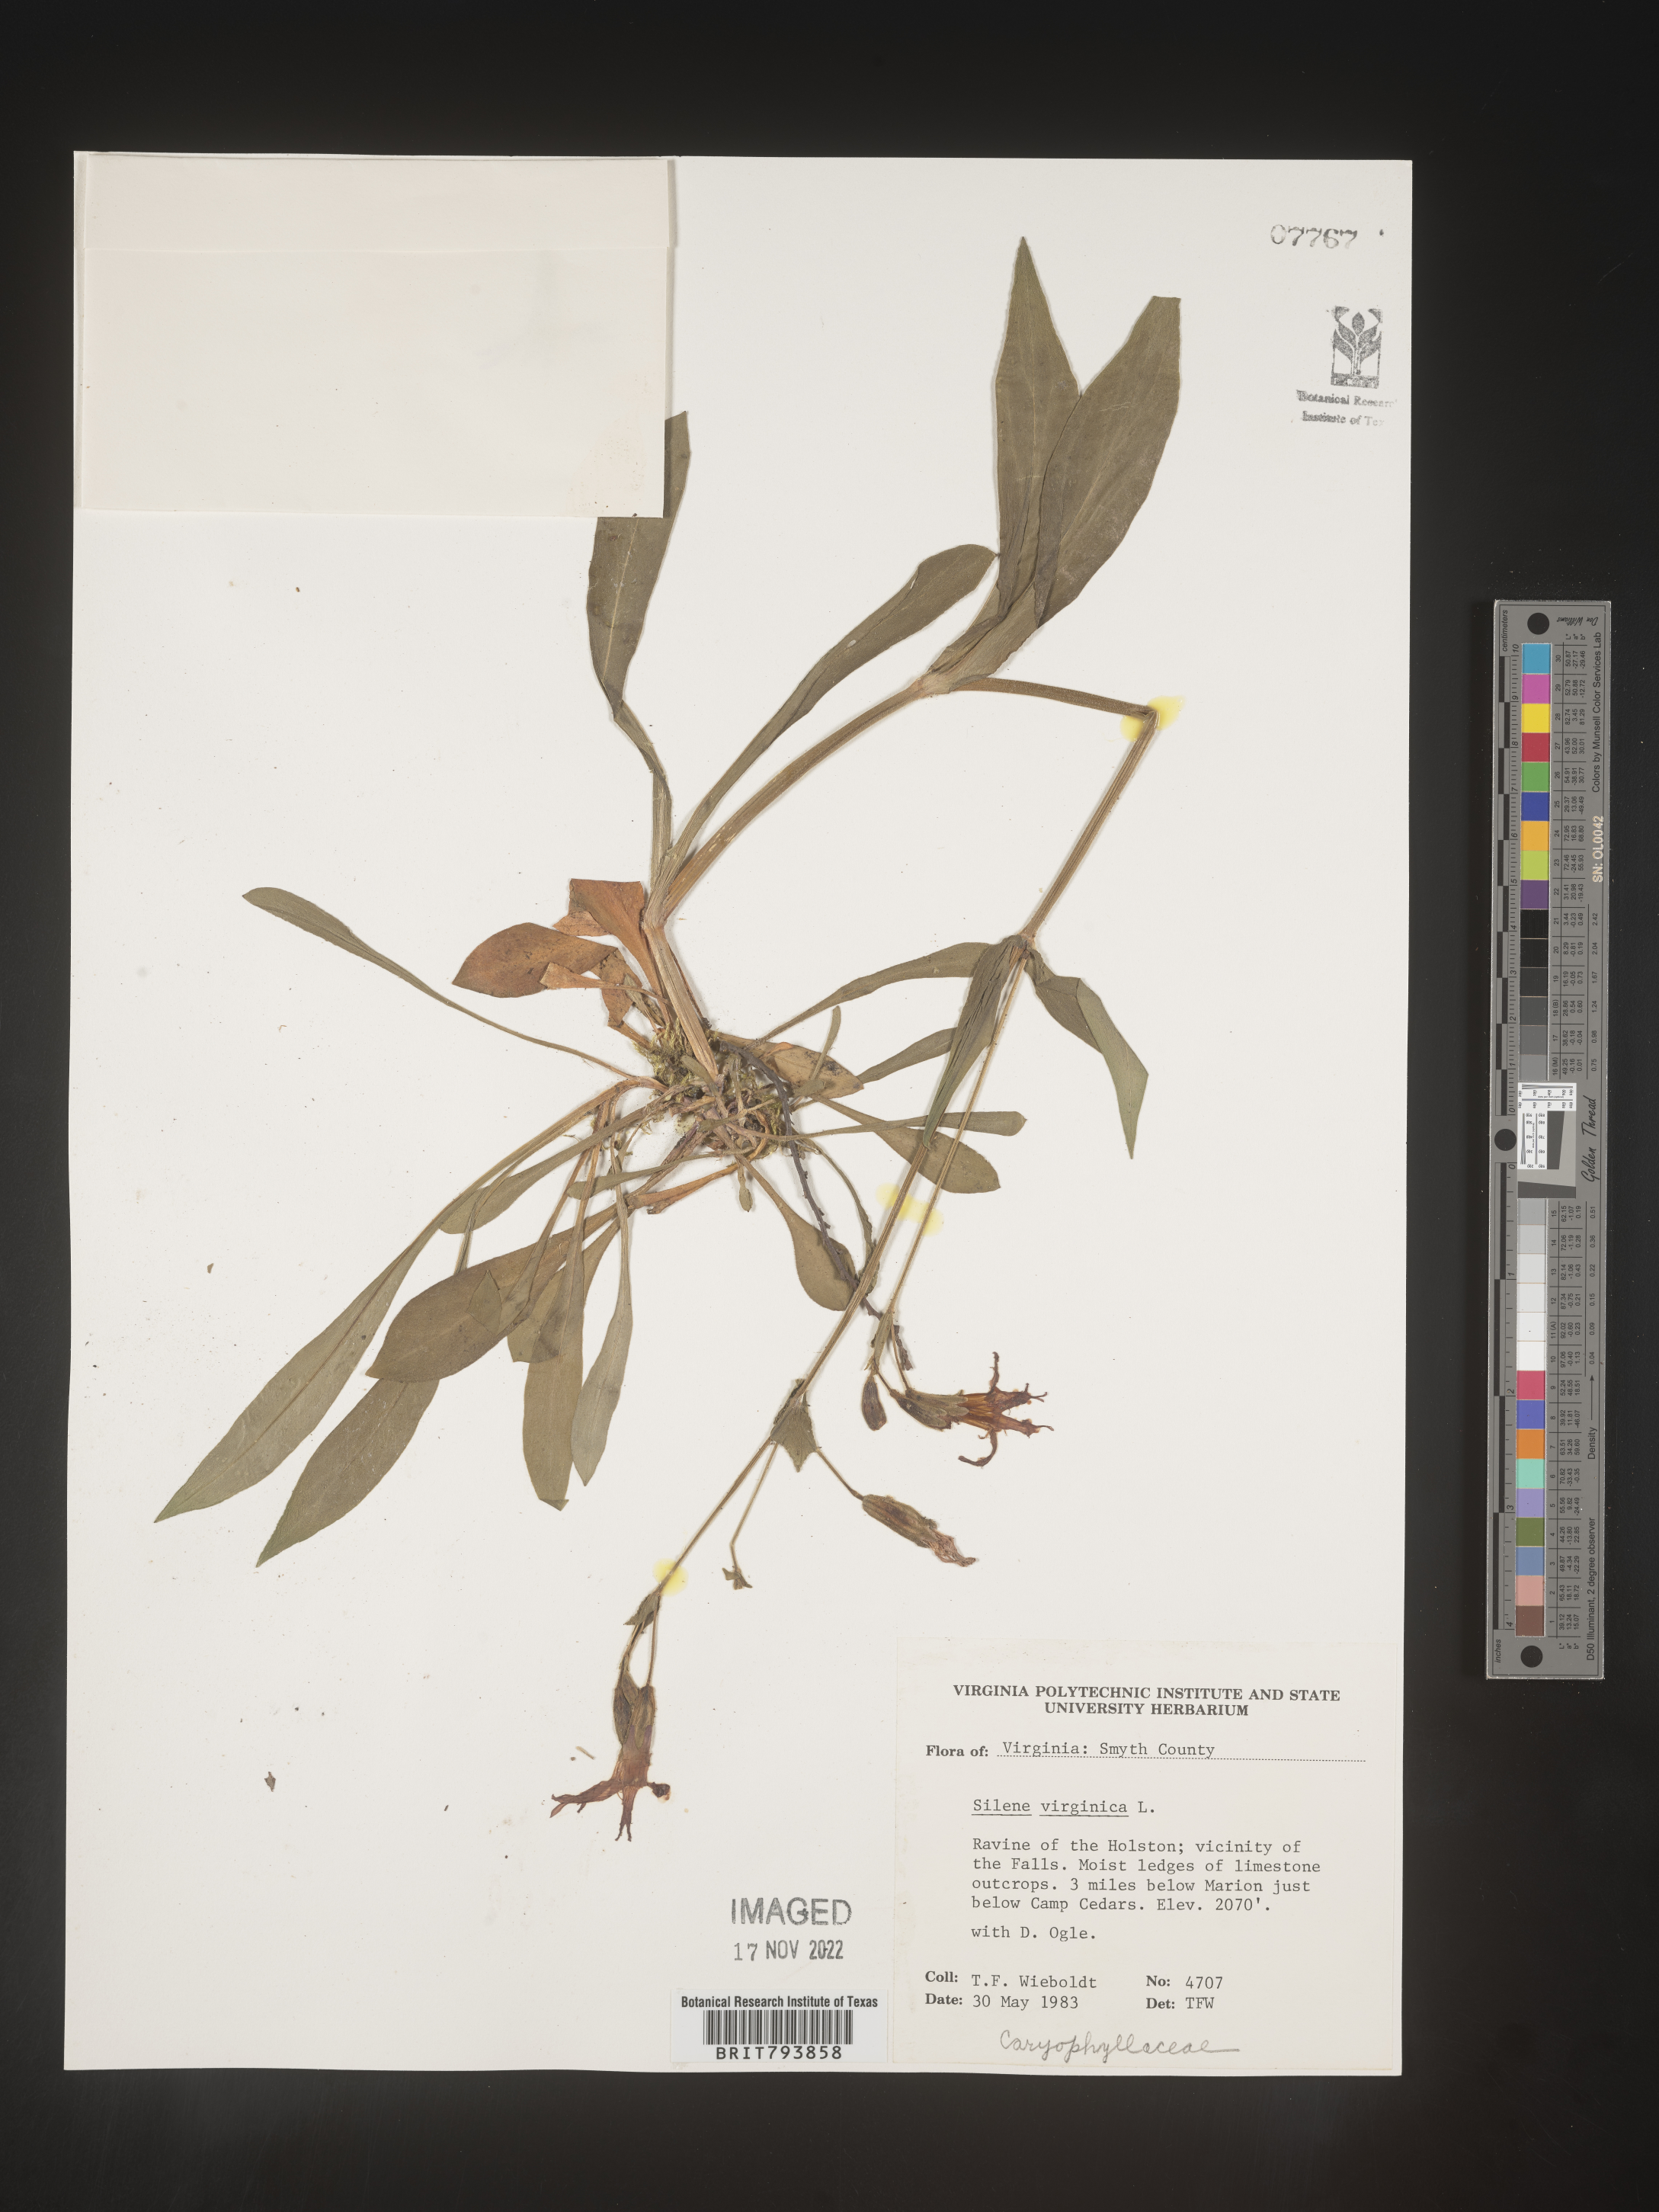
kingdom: Plantae
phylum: Tracheophyta
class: Magnoliopsida
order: Caryophyllales
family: Caryophyllaceae
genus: Silene
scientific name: Silene virginica
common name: Fire-pink
